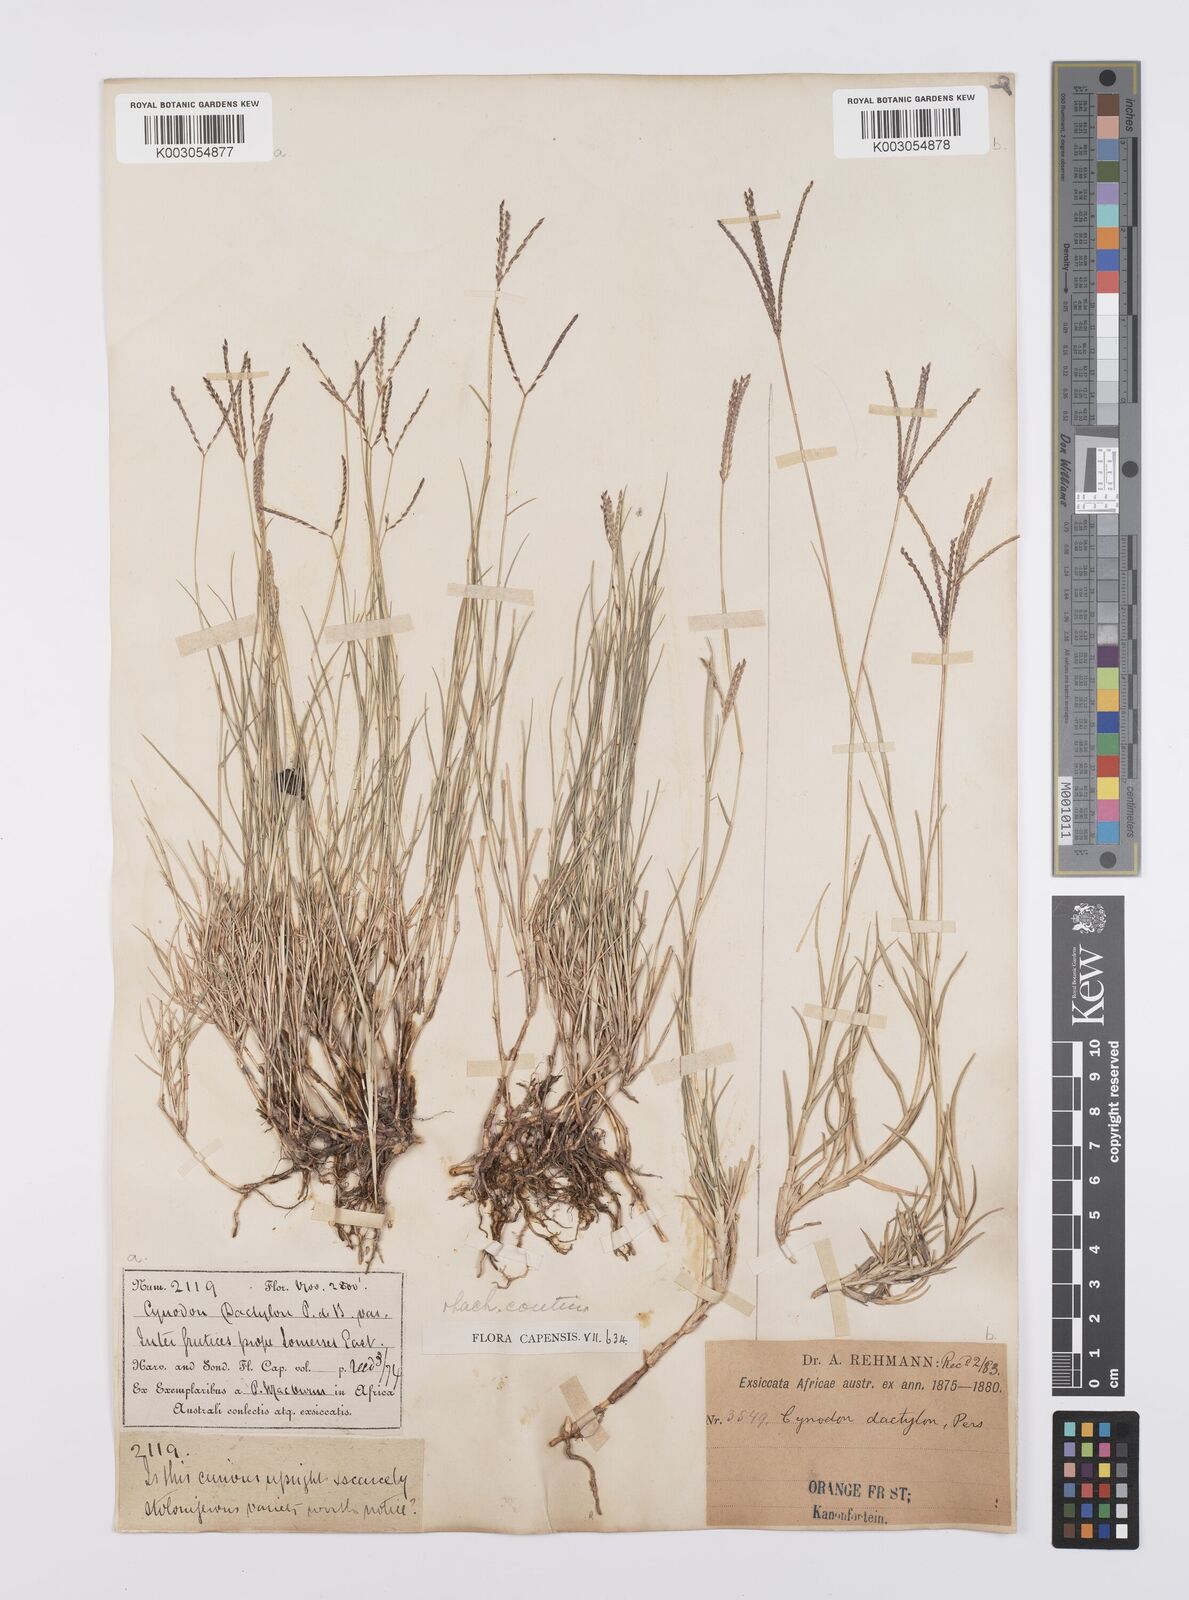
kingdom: Plantae
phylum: Tracheophyta
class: Liliopsida
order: Poales
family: Poaceae
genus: Cynodon
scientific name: Cynodon dactylon
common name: Bermuda grass
